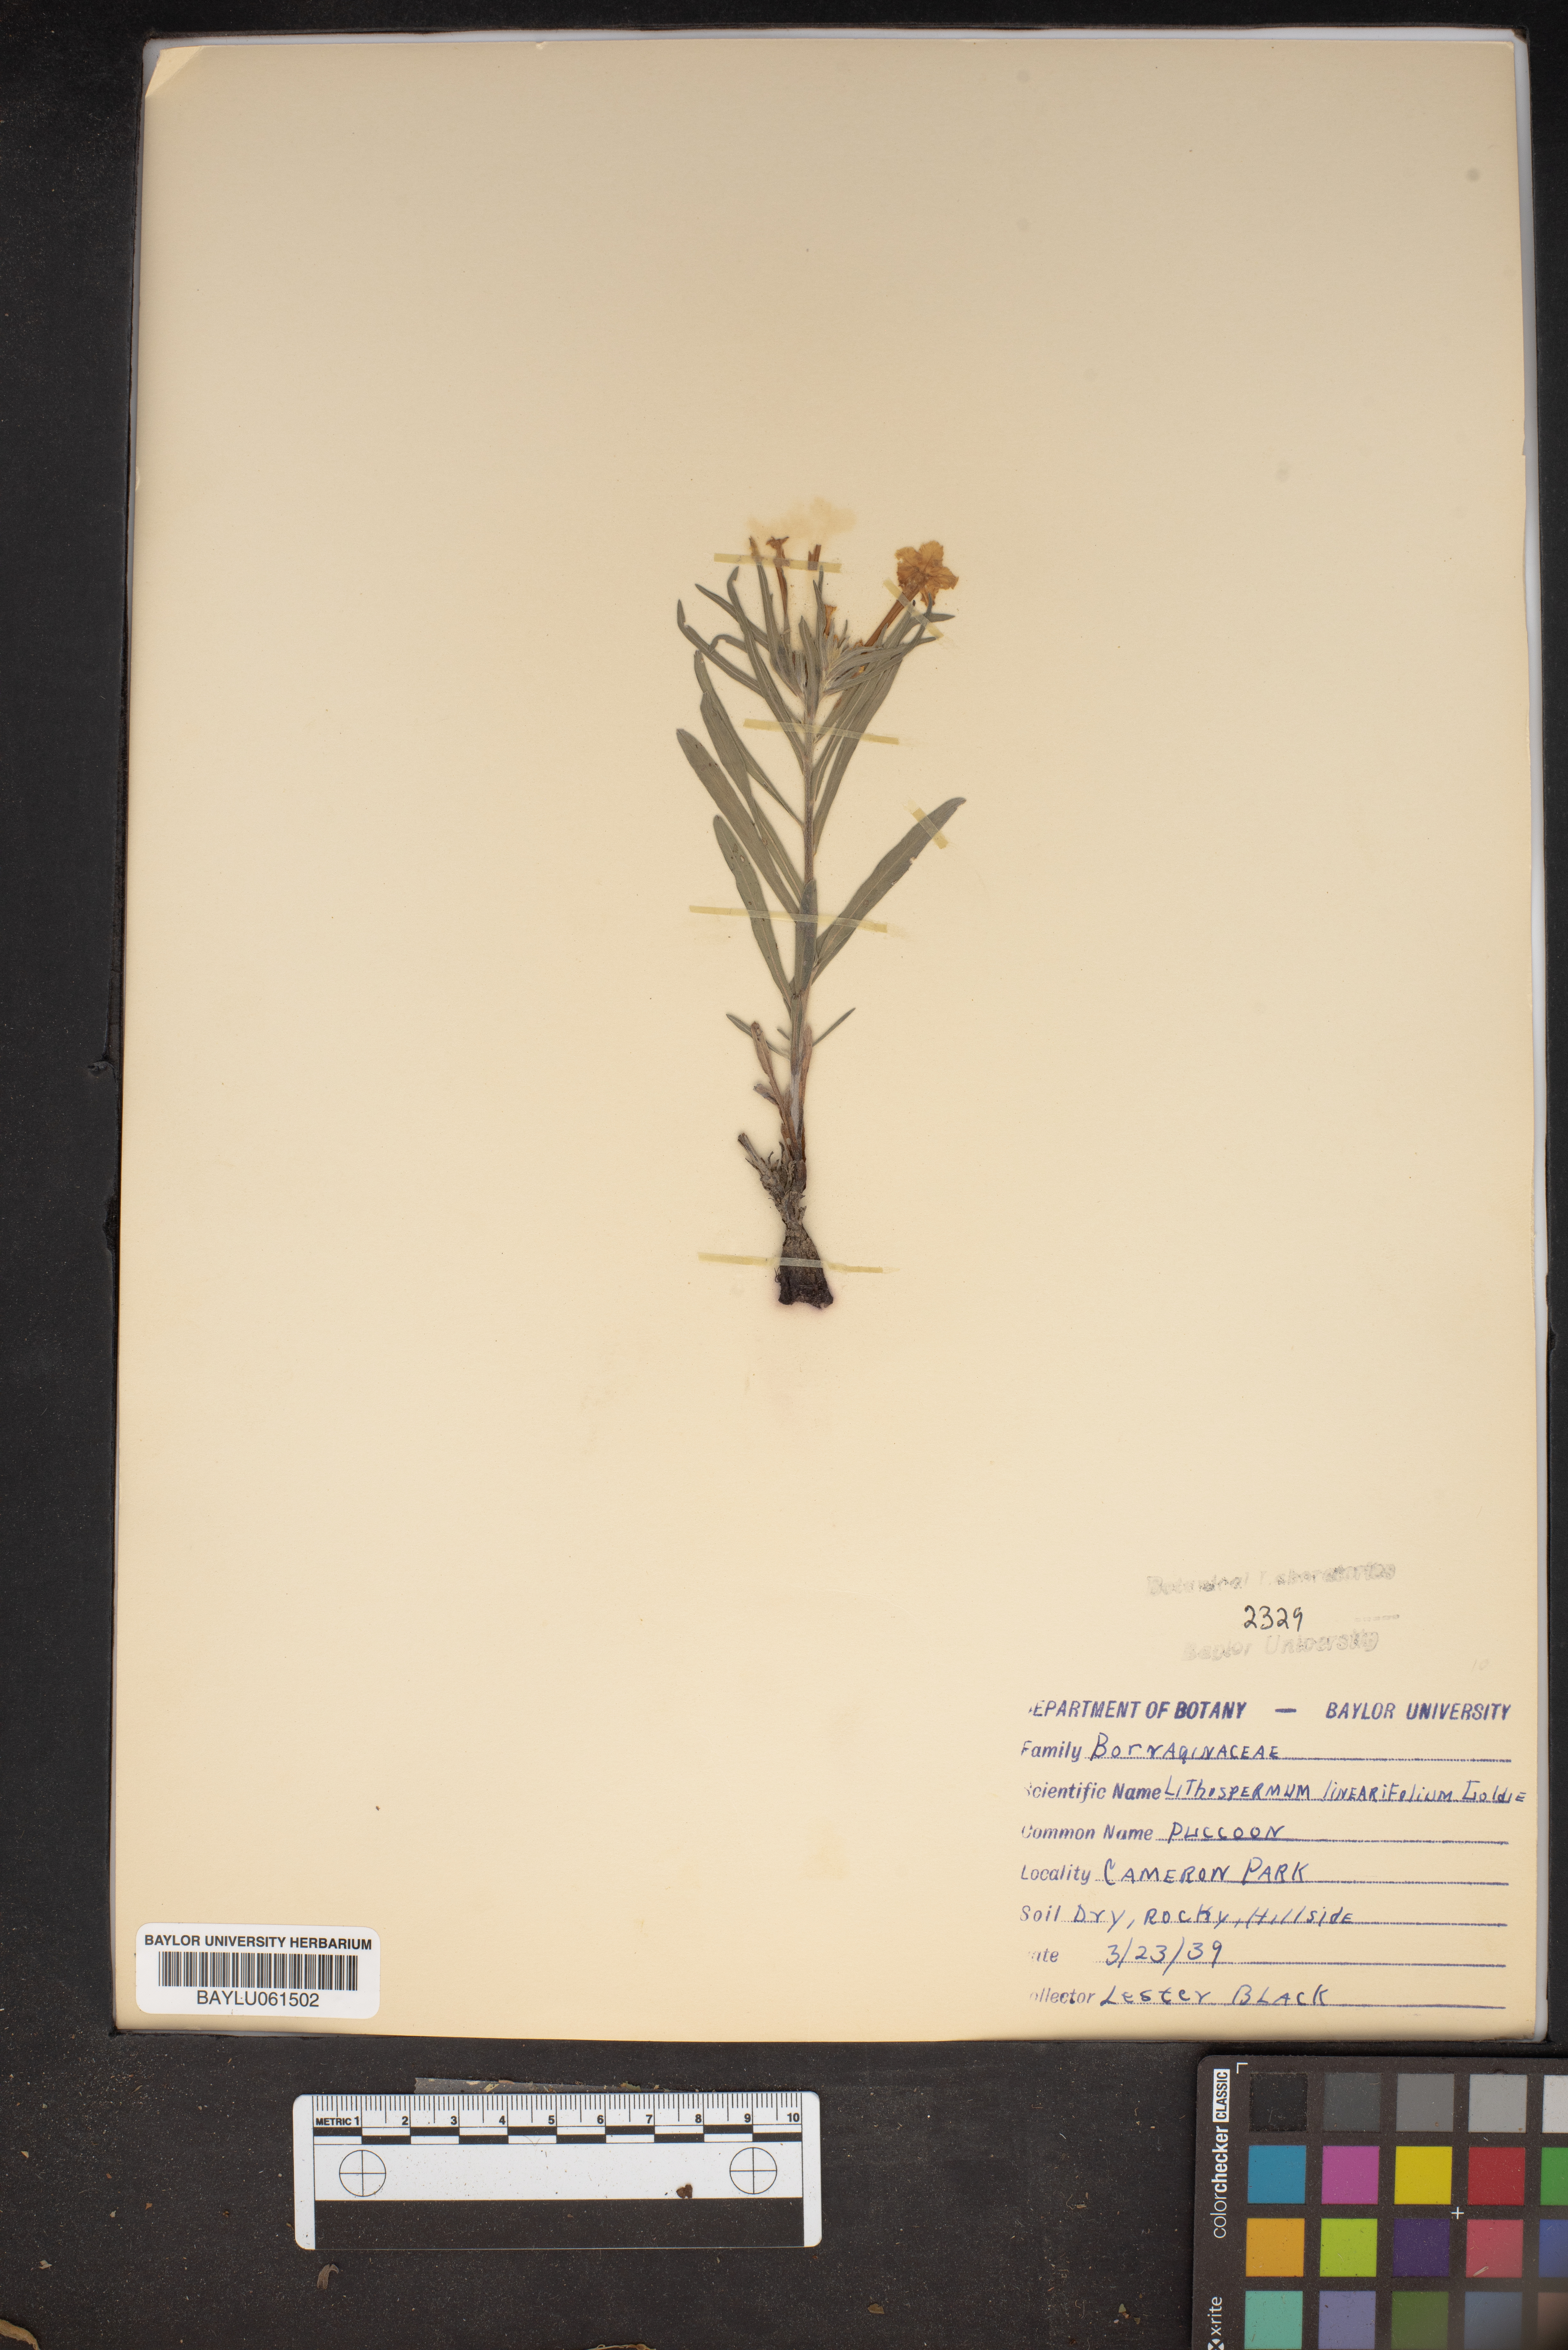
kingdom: Plantae
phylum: Tracheophyta
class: Magnoliopsida
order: Boraginales
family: Boraginaceae
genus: Lithospermum
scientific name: Lithospermum incisum
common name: Fringed gromwell
